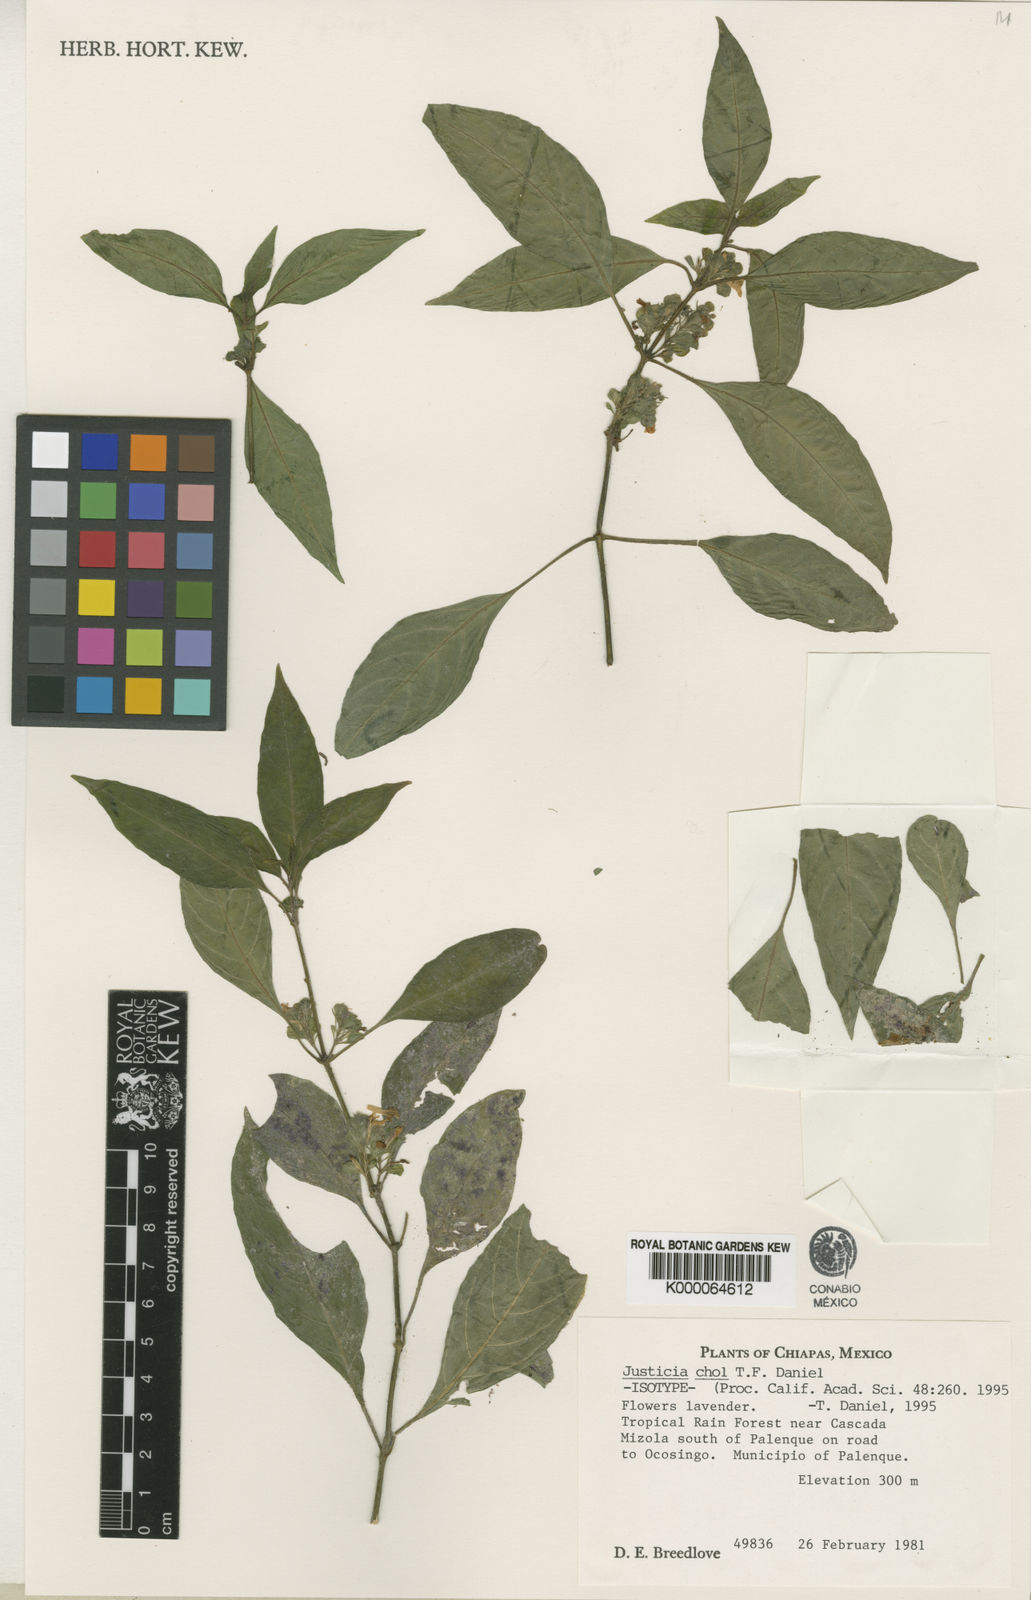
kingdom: Plantae
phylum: Tracheophyta
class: Magnoliopsida
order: Lamiales
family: Acanthaceae
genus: Justicia
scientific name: Justicia chol
